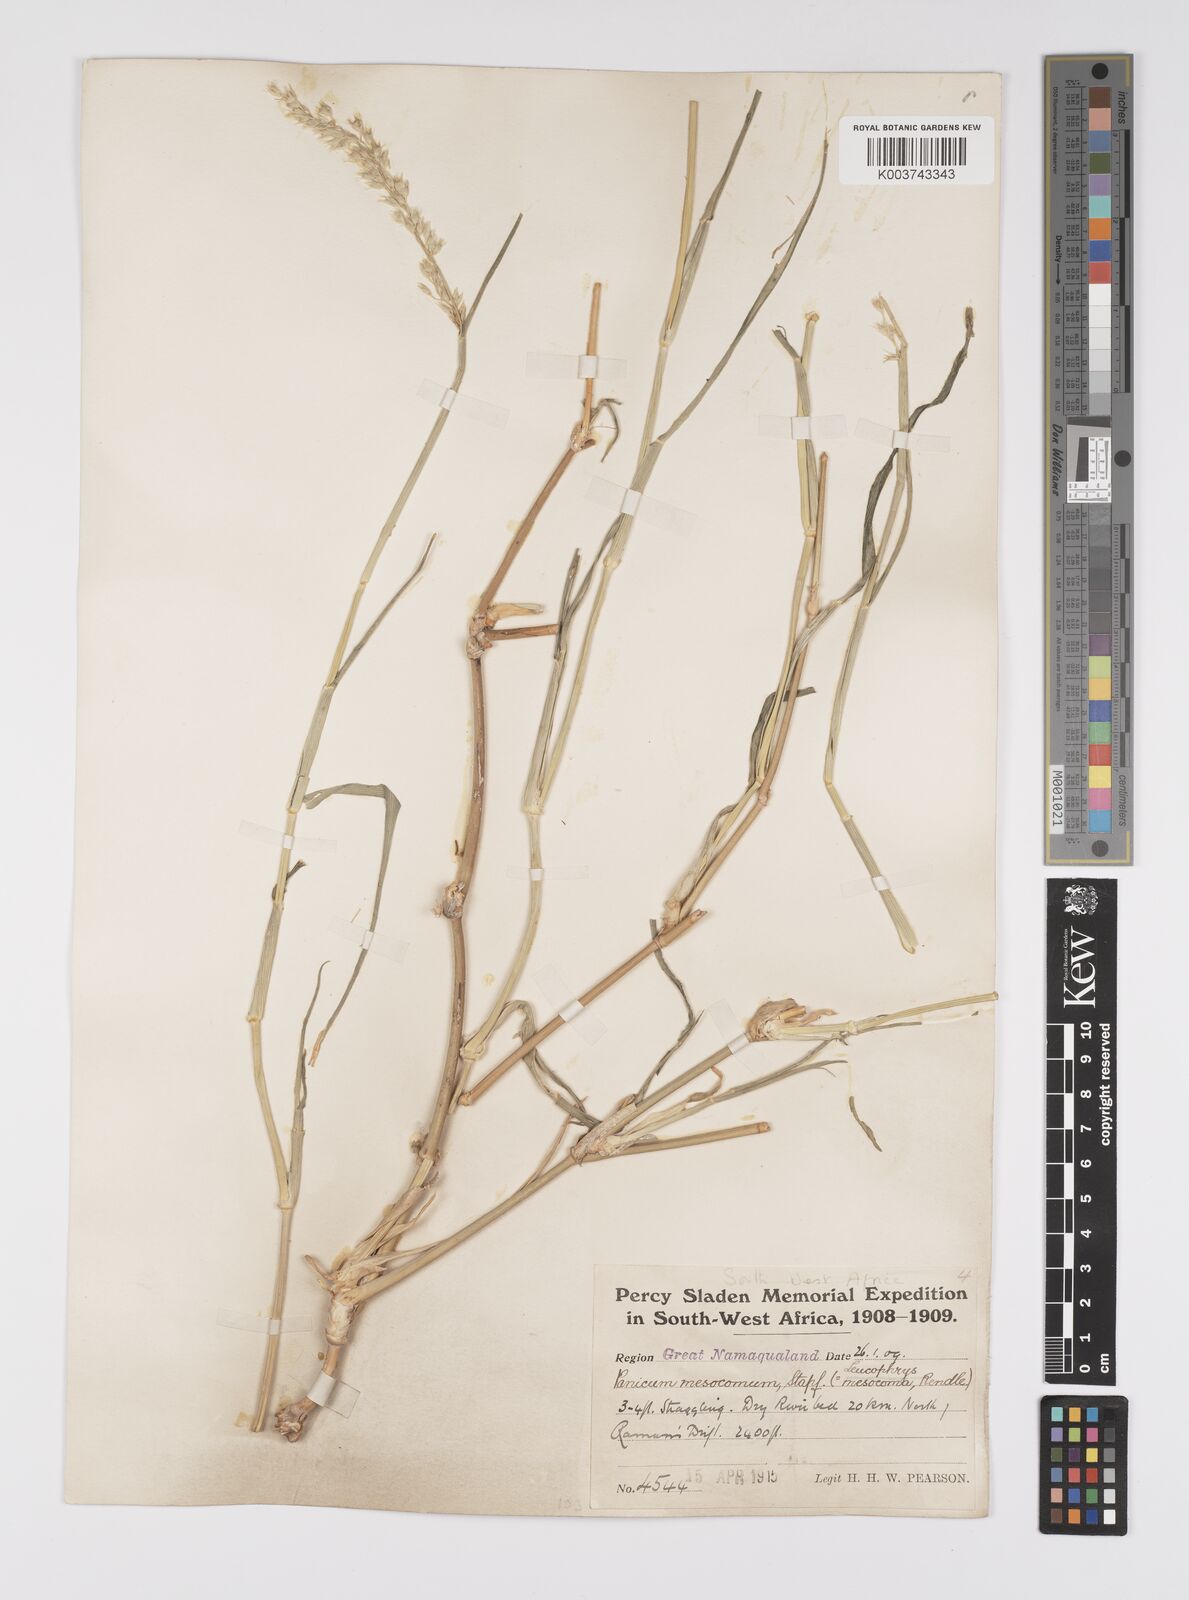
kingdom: Plantae
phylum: Tracheophyta
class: Liliopsida
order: Poales
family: Poaceae
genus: Urochloa
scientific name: Urochloa Brachiaria mesocoma
